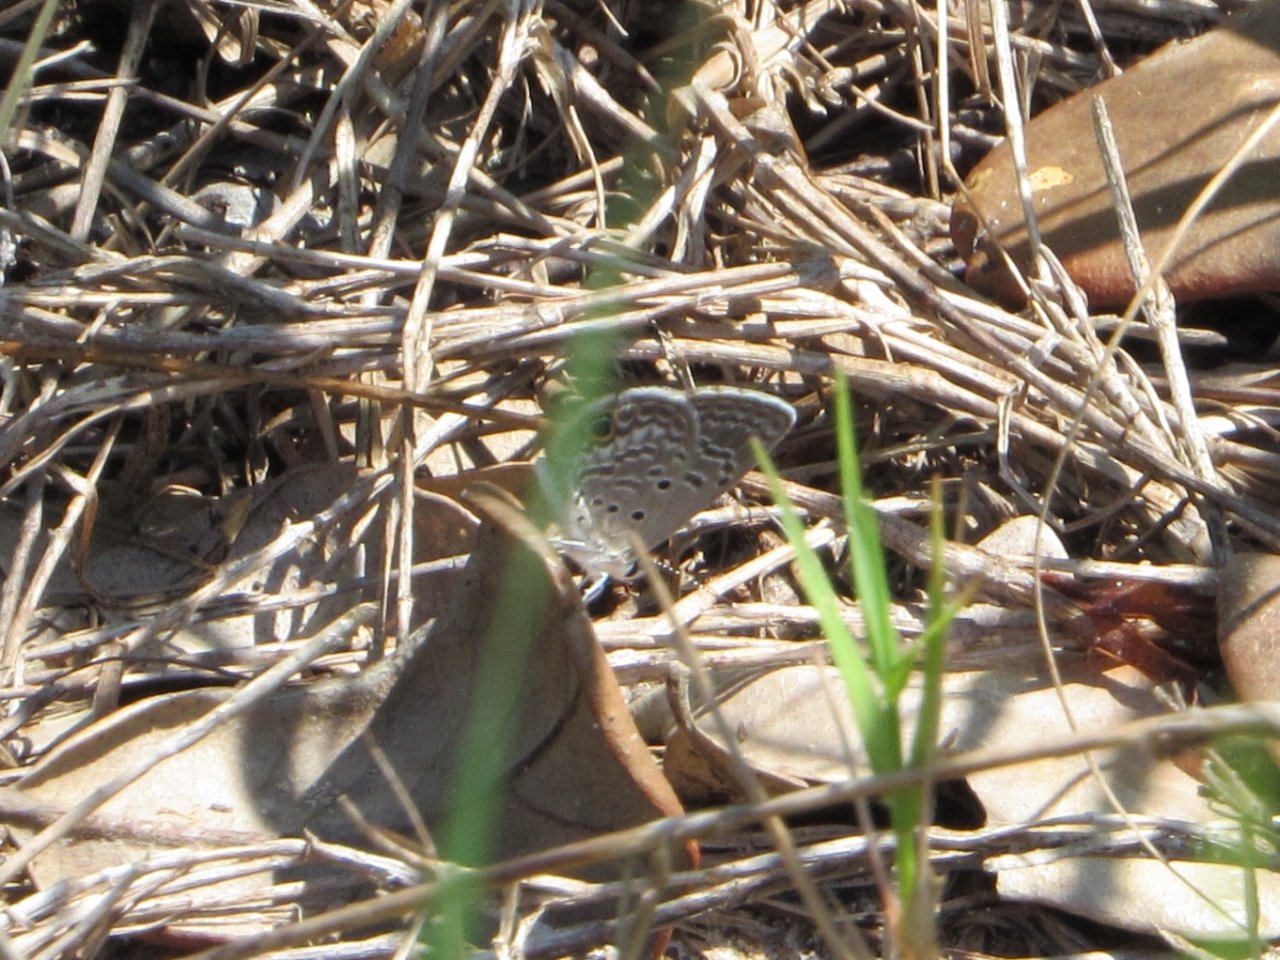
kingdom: Animalia
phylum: Arthropoda
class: Insecta
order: Lepidoptera
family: Hesperiidae
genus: Urbanus
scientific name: Urbanus proteus
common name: Long-tailed Skipper
